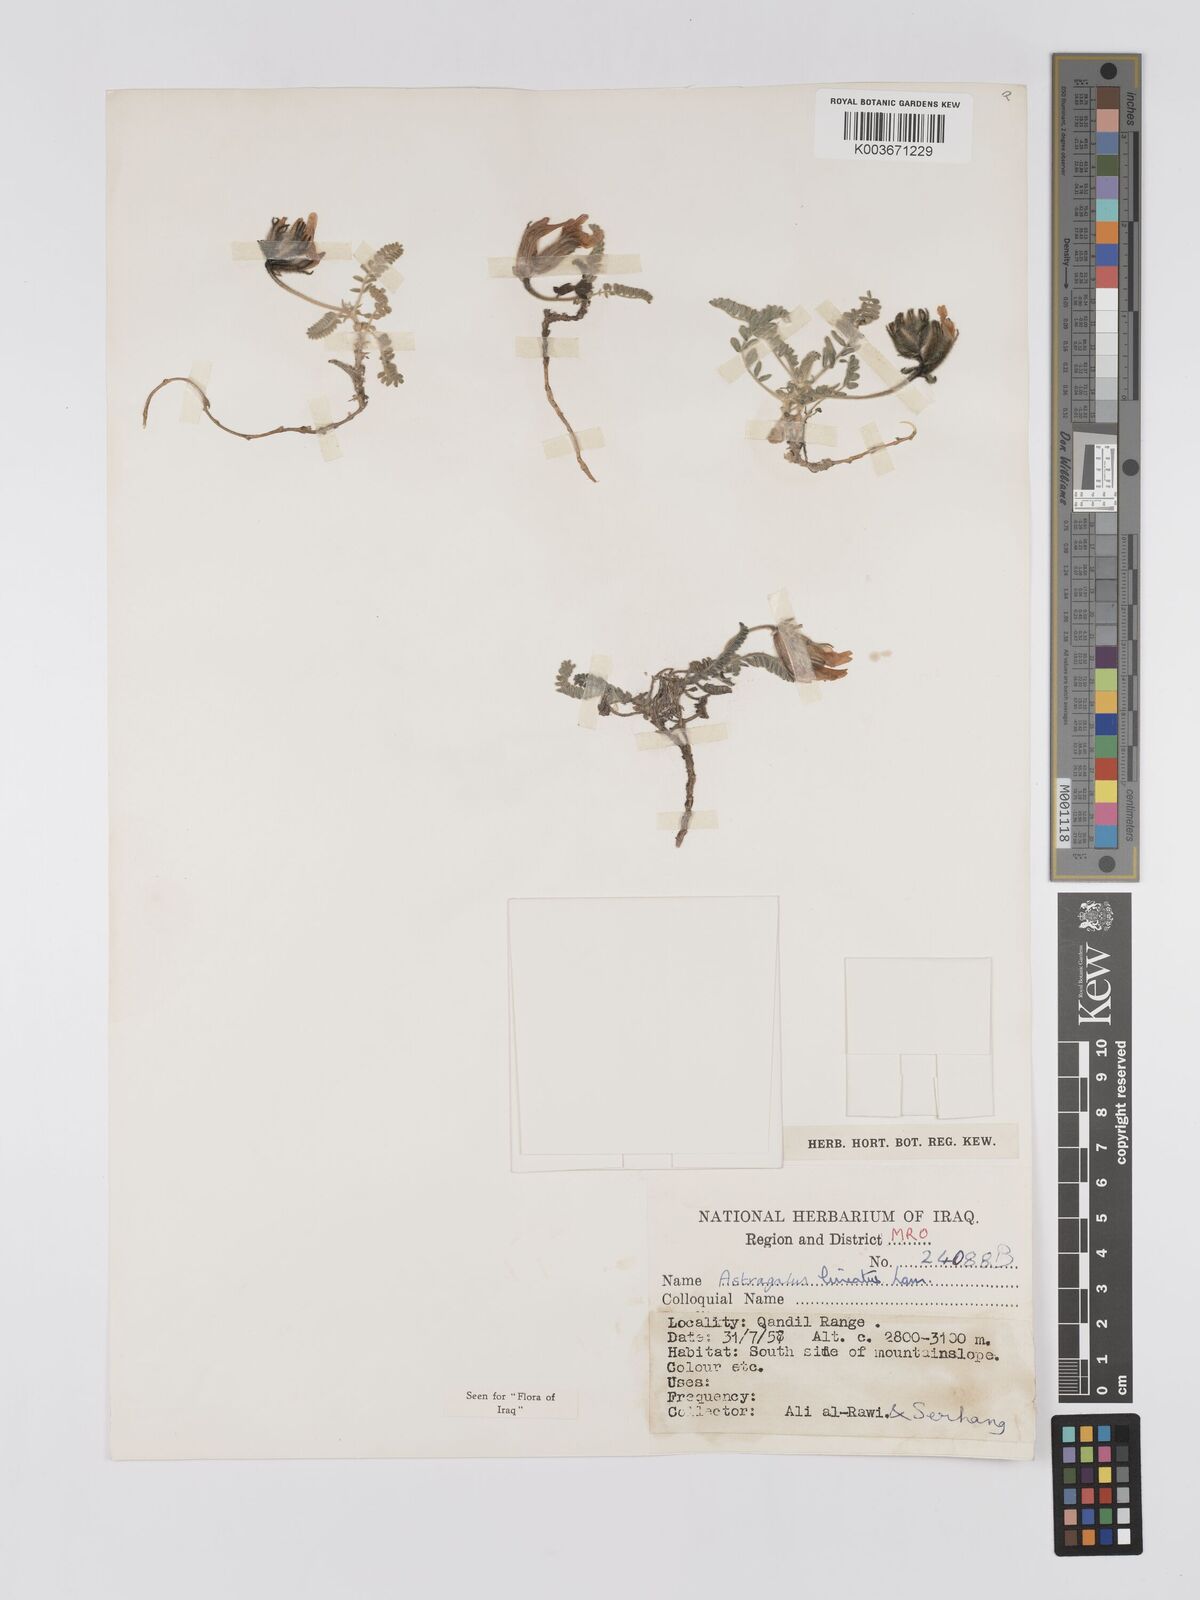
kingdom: Plantae
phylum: Tracheophyta
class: Magnoliopsida
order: Fabales
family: Fabaceae
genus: Astragalus
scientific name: Astragalus lineatus
